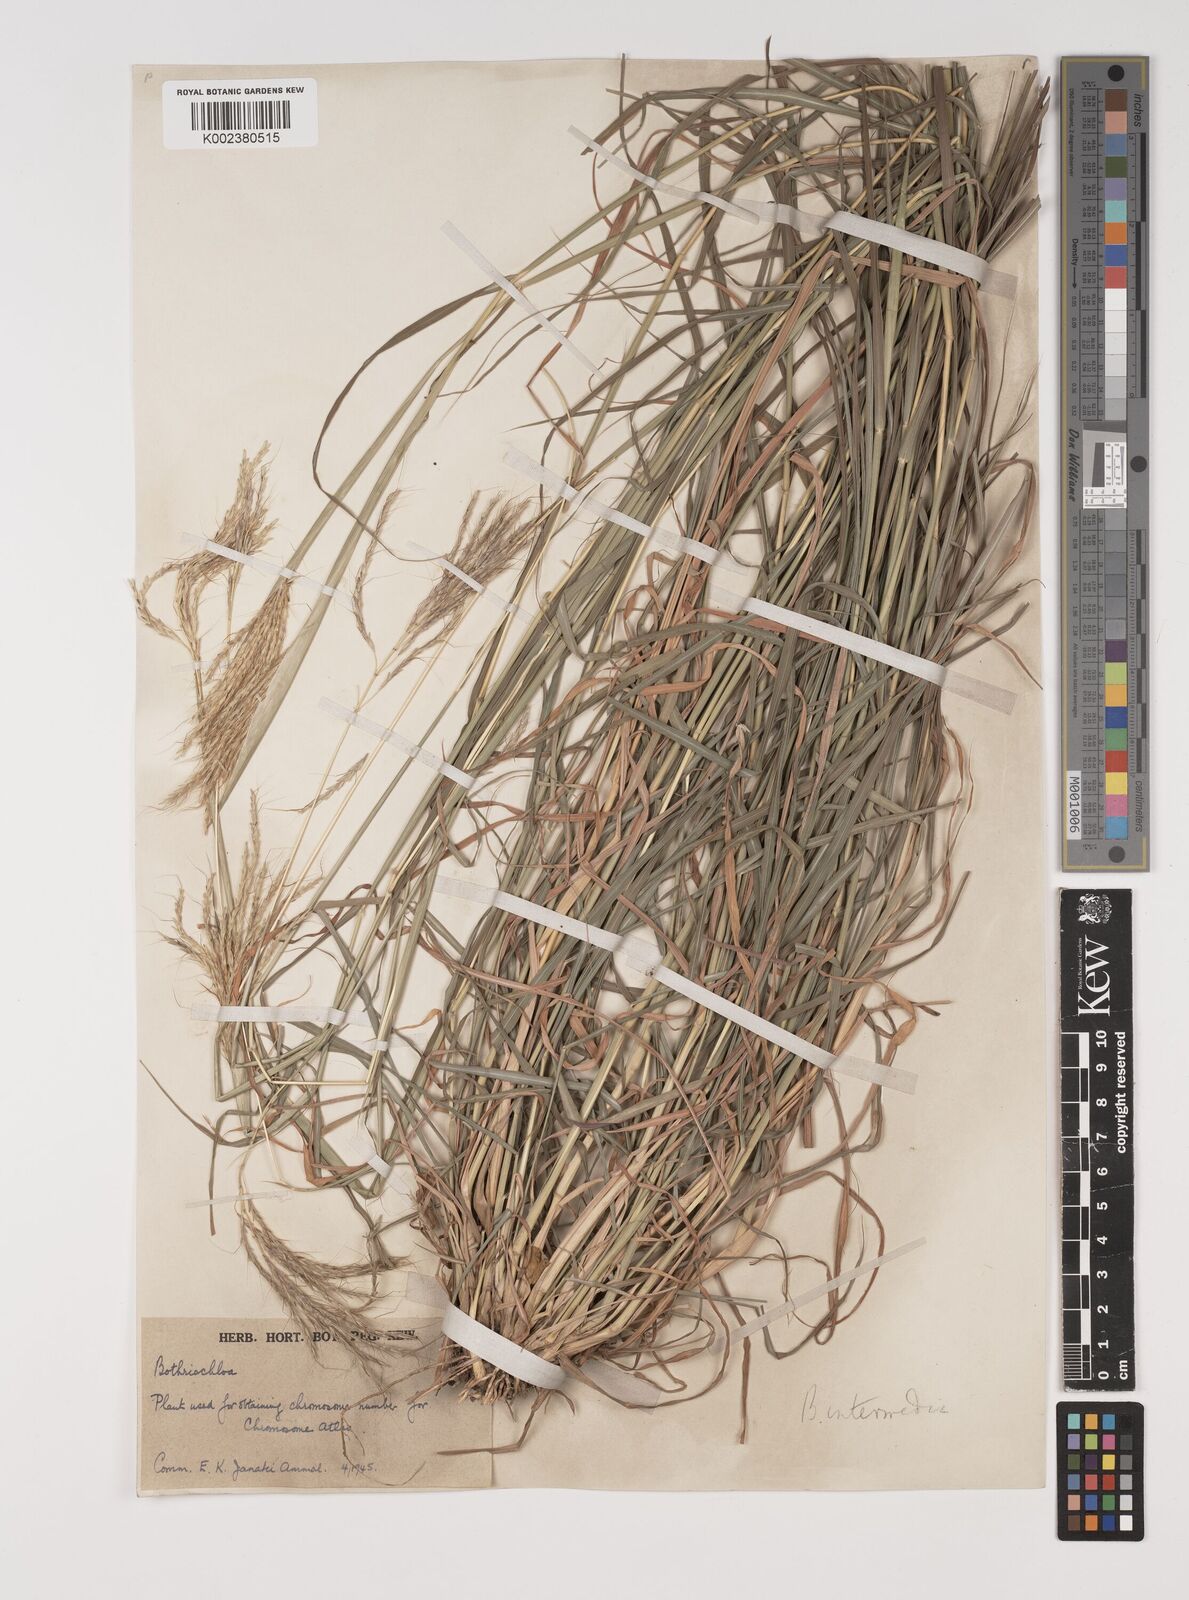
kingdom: Plantae
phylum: Tracheophyta
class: Liliopsida
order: Poales
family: Poaceae
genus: Bothriochloa
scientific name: Bothriochloa bladhii
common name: Caucasian bluestem
